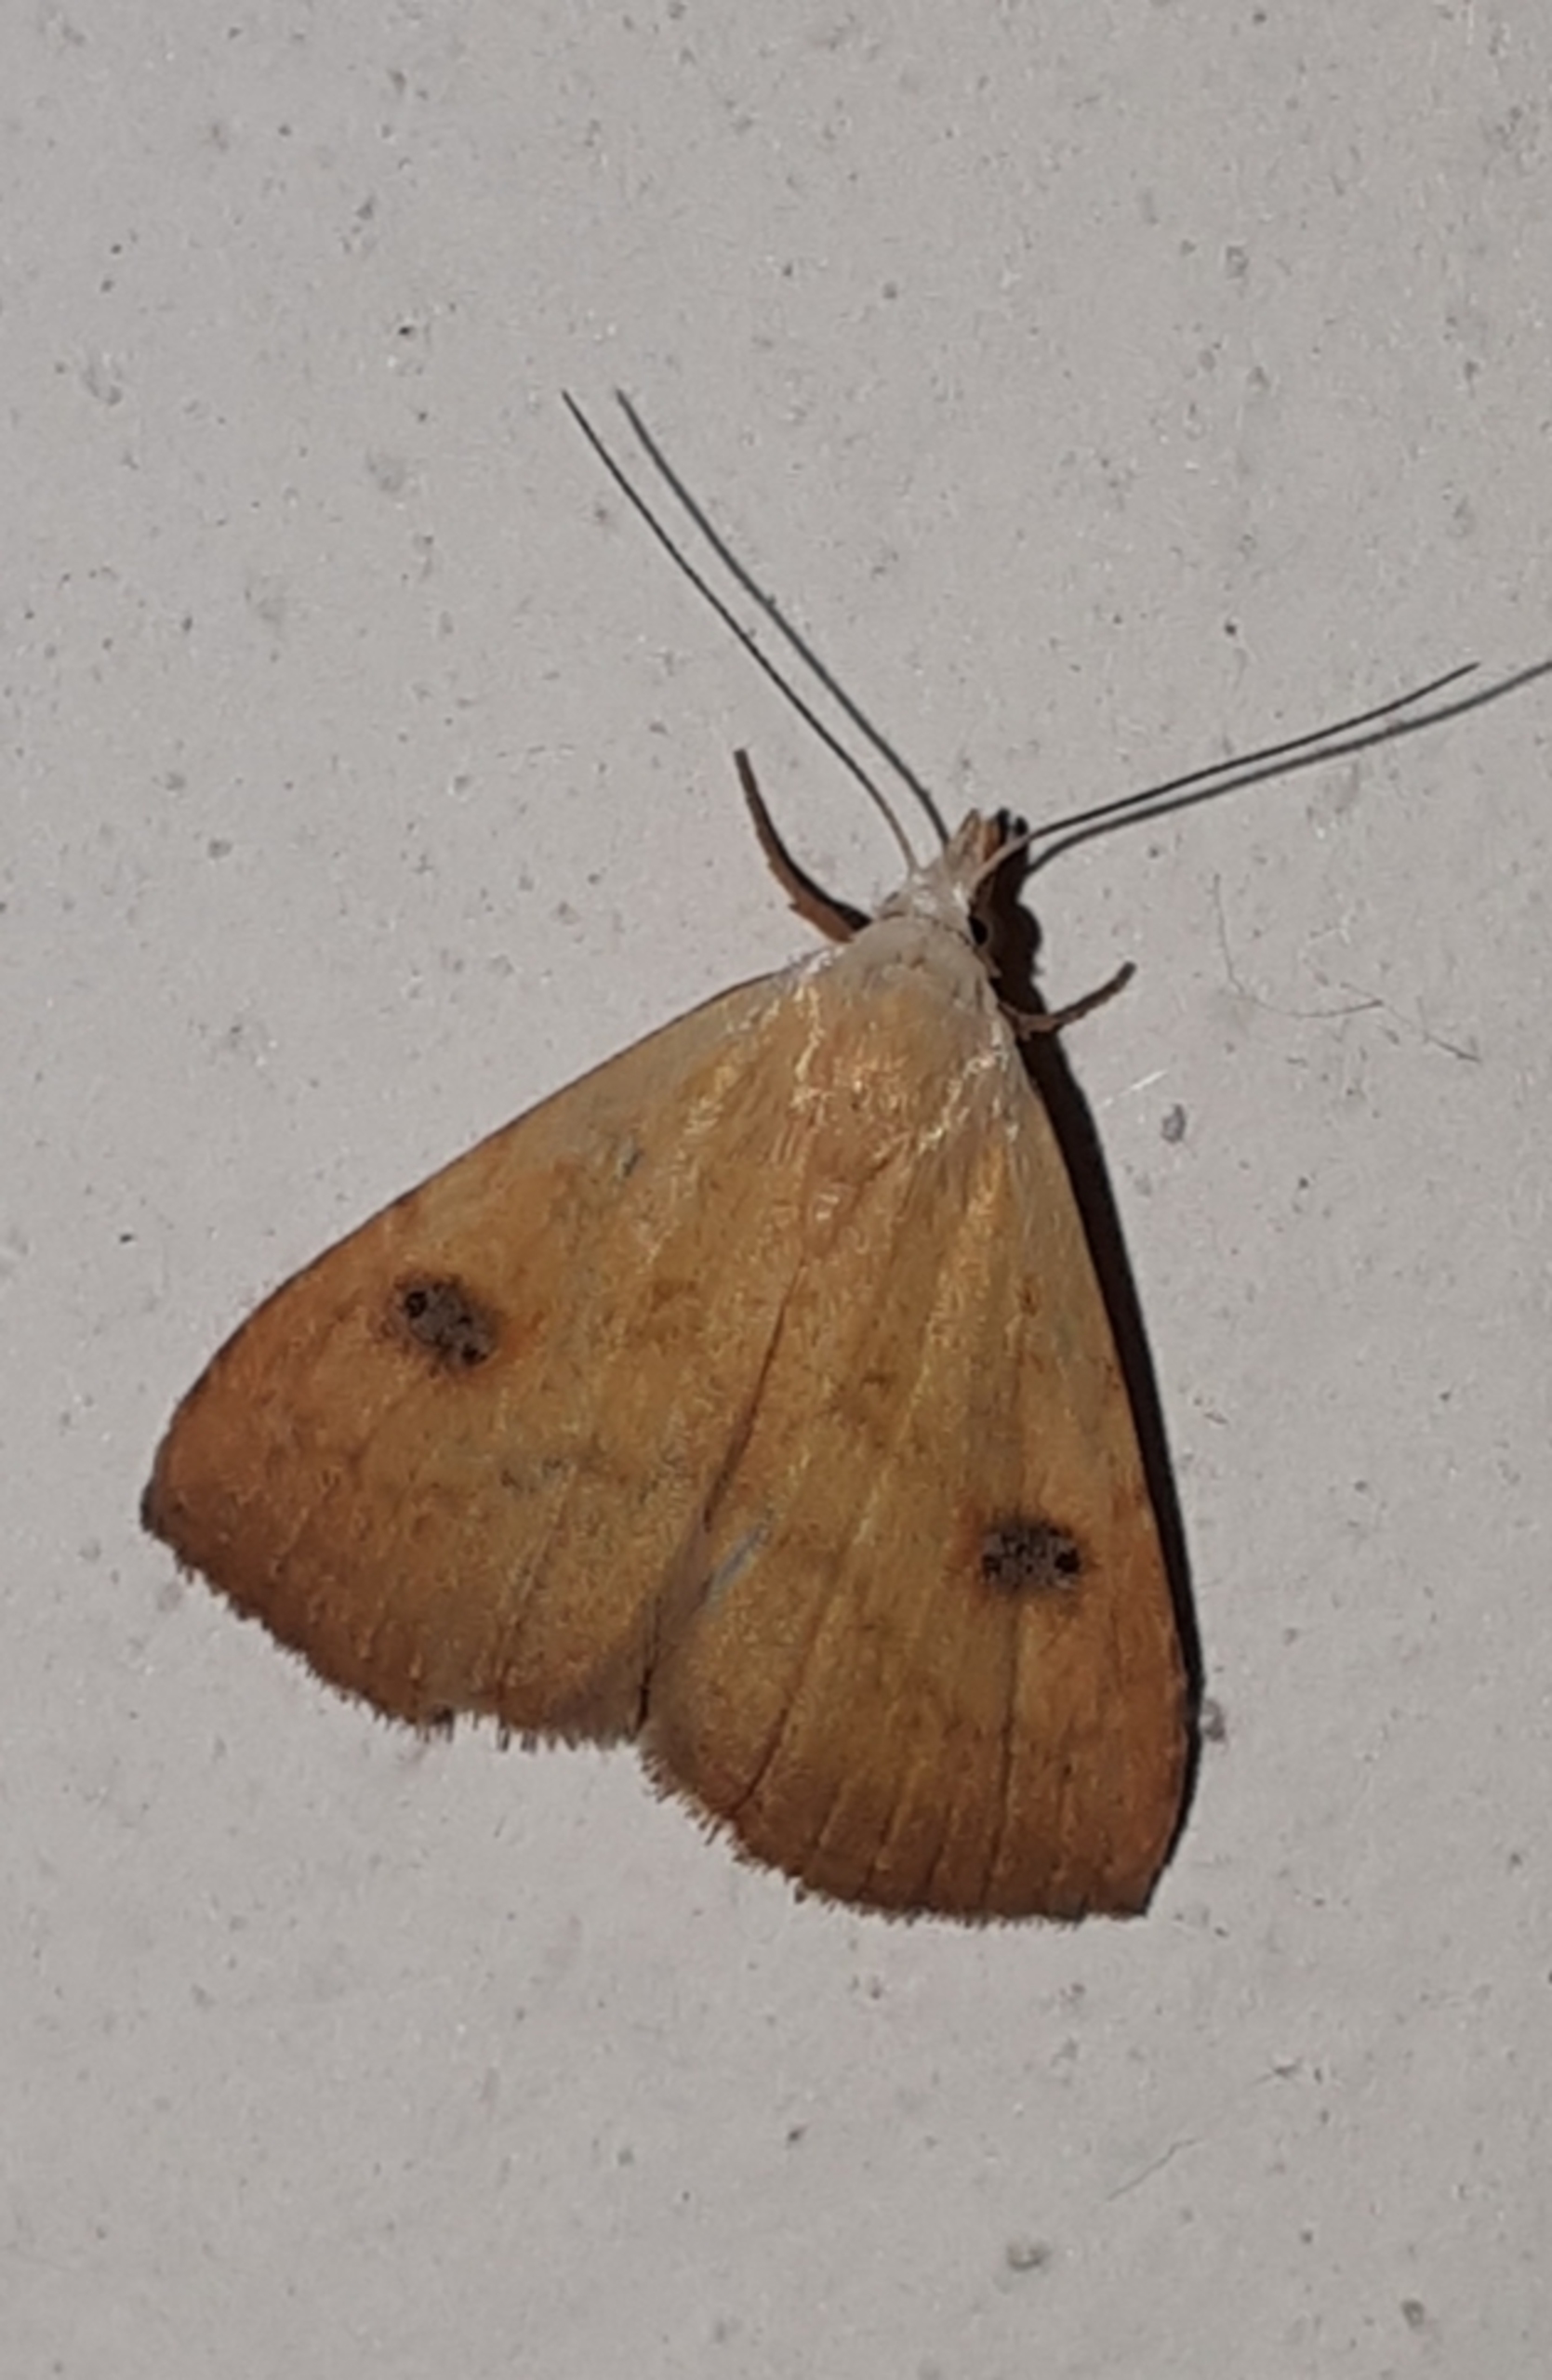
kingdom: Animalia
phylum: Arthropoda
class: Insecta
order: Lepidoptera
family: Erebidae
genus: Rivula
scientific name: Rivula sericealis
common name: Lille å-ugle
